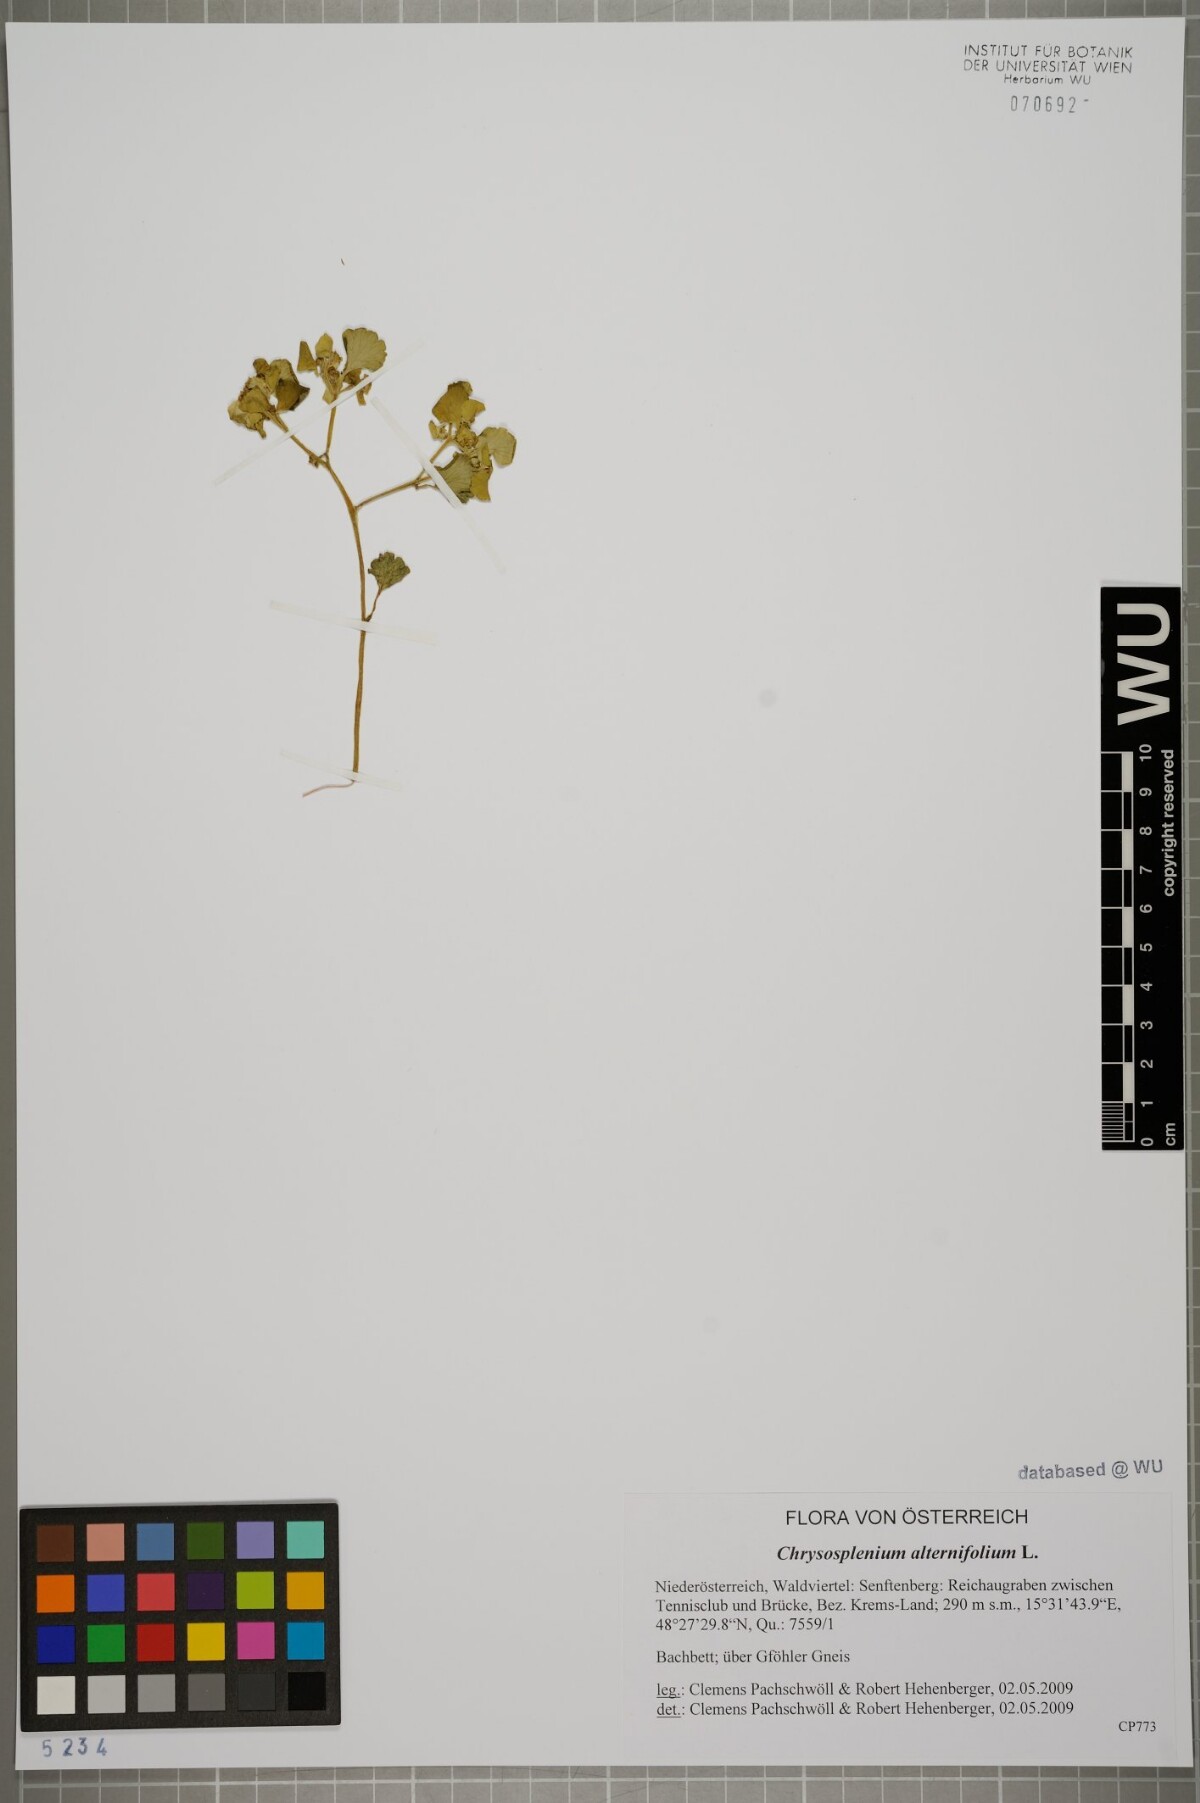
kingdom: Plantae
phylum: Tracheophyta
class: Magnoliopsida
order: Saxifragales
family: Saxifragaceae
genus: Chrysosplenium
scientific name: Chrysosplenium alternifolium
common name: Alternate-leaved golden-saxifrage
